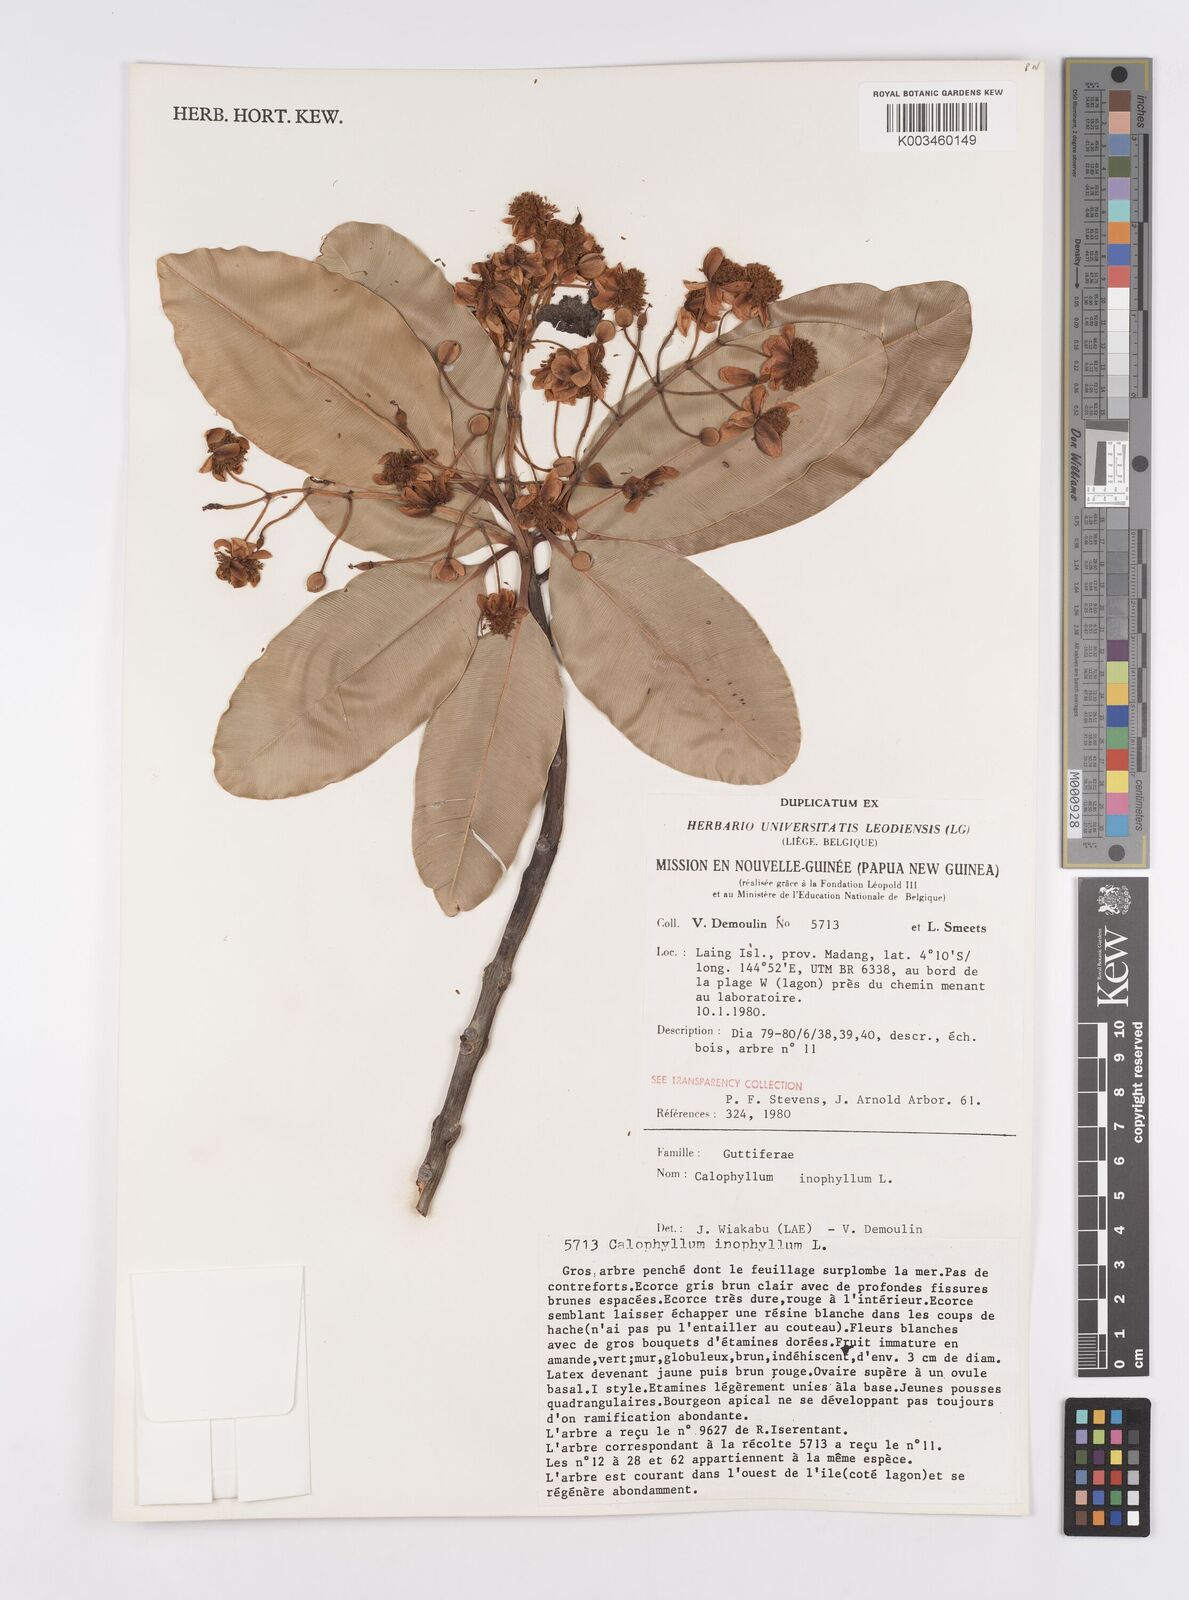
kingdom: Plantae
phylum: Tracheophyta
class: Magnoliopsida
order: Malpighiales
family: Calophyllaceae
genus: Calophyllum
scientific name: Calophyllum inophyllum
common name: Alexandrian laurel
